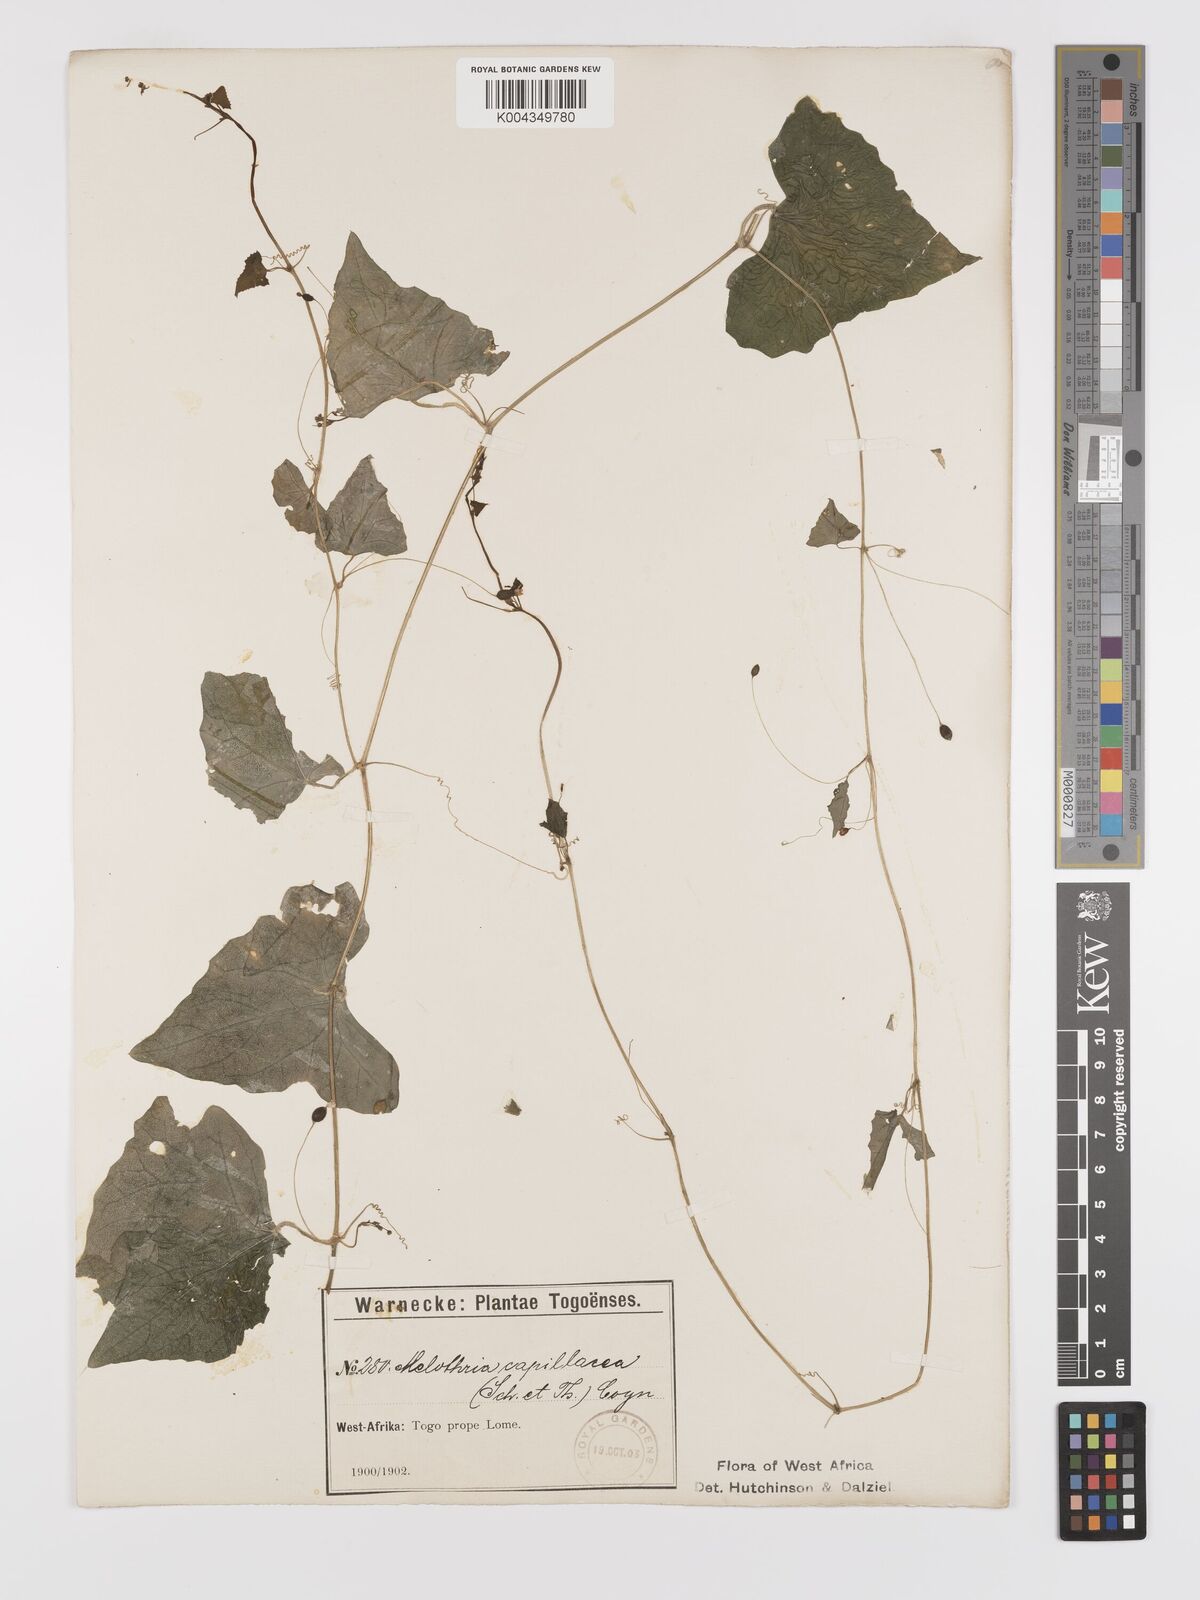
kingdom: Plantae
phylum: Tracheophyta
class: Magnoliopsida
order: Cucurbitales
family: Cucurbitaceae
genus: Zehneria
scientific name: Zehneria capillacea
